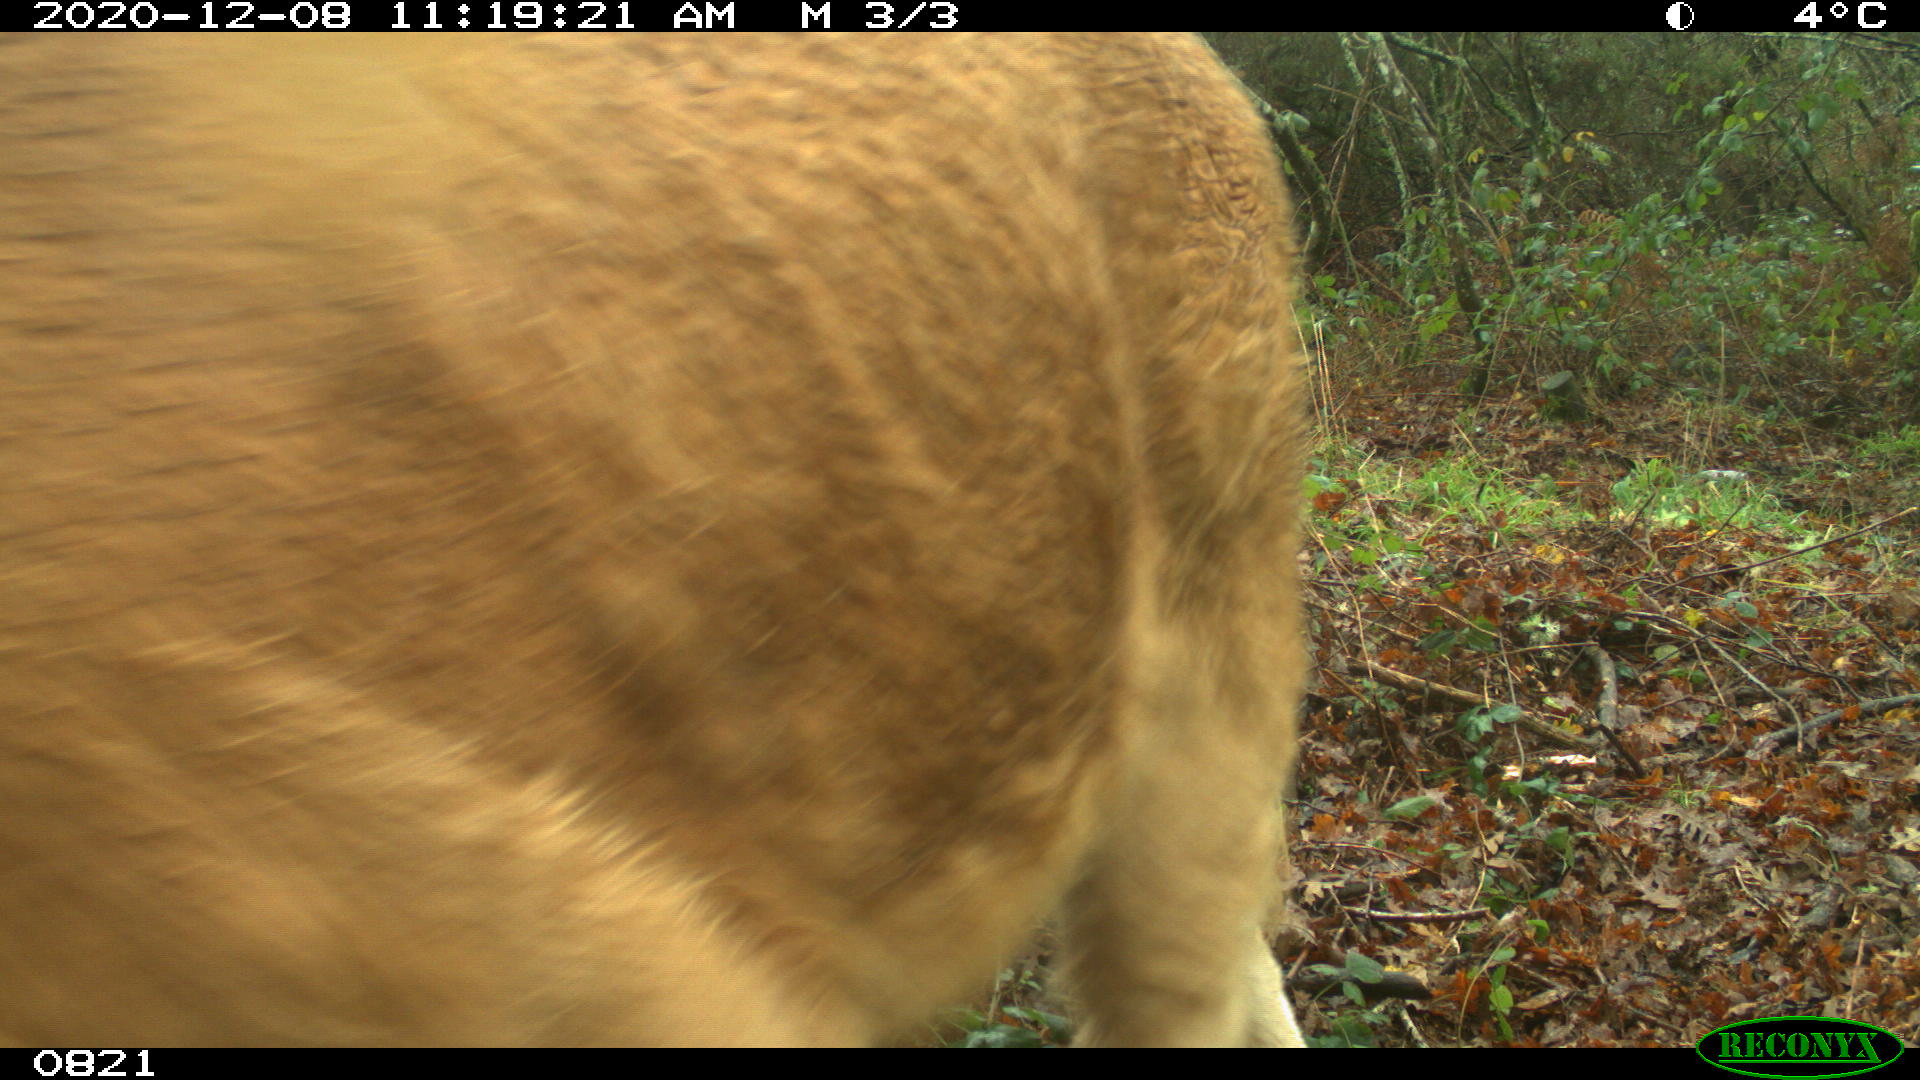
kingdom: Animalia
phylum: Chordata
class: Mammalia
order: Artiodactyla
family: Bovidae
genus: Bos
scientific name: Bos taurus
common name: Domesticated cattle
